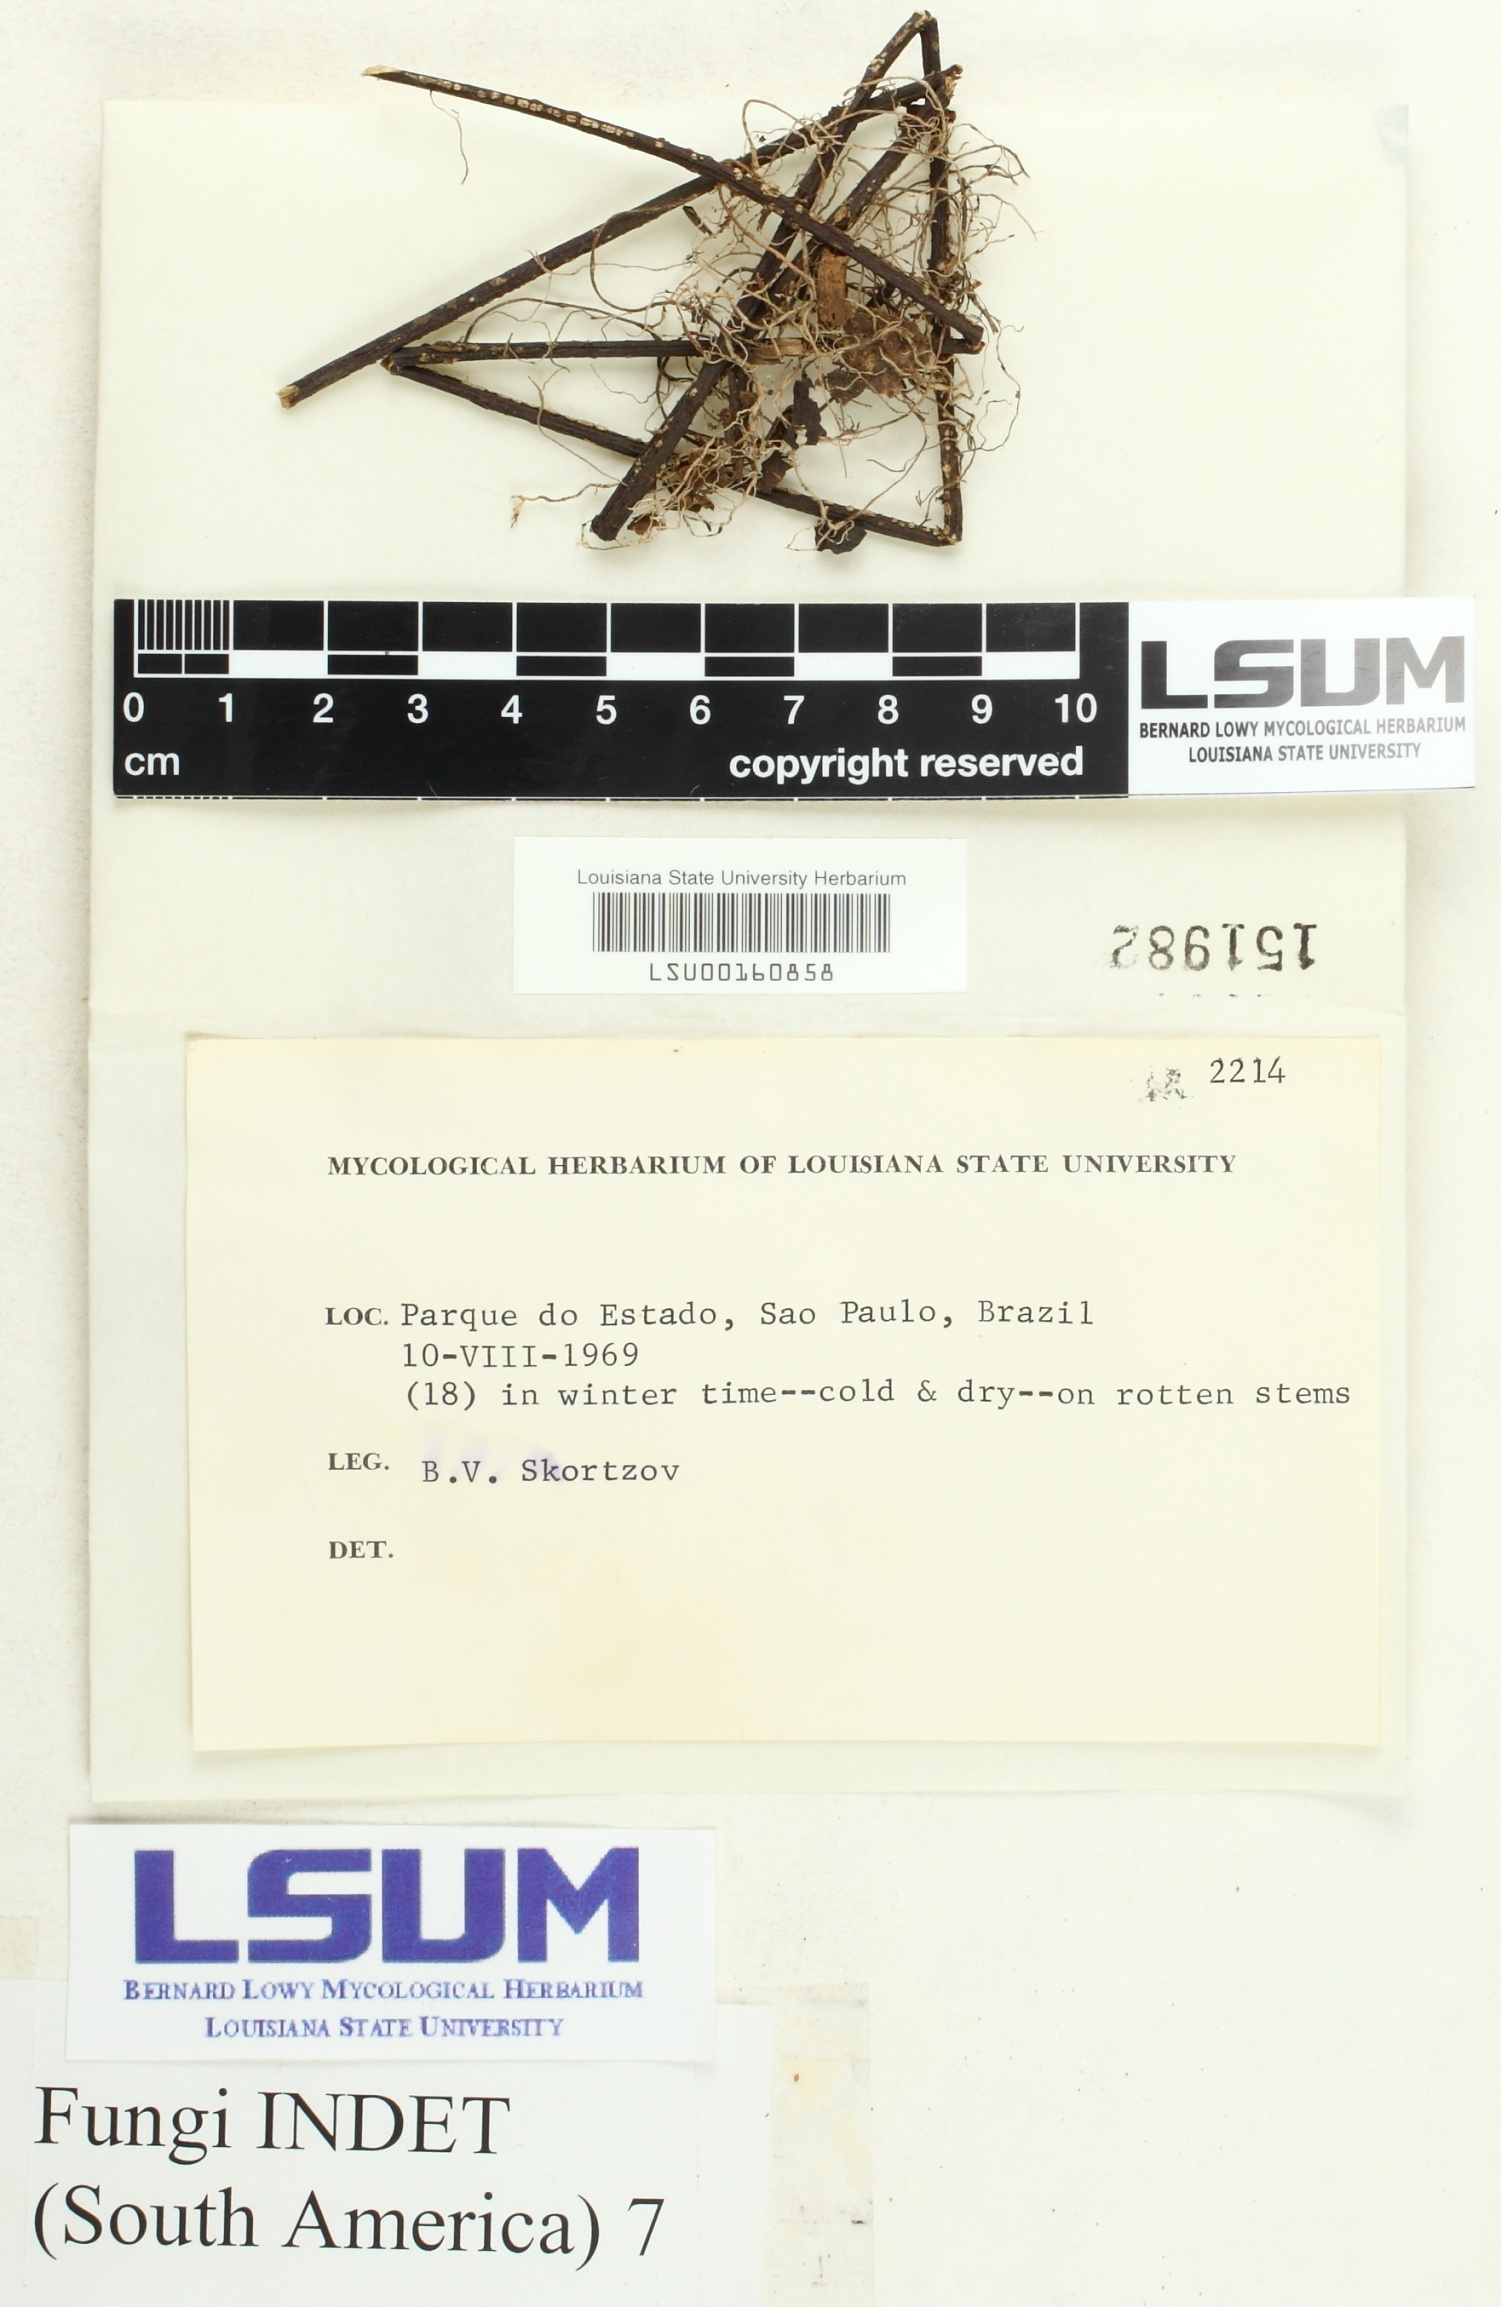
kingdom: Fungi
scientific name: Fungi
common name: Fungi
